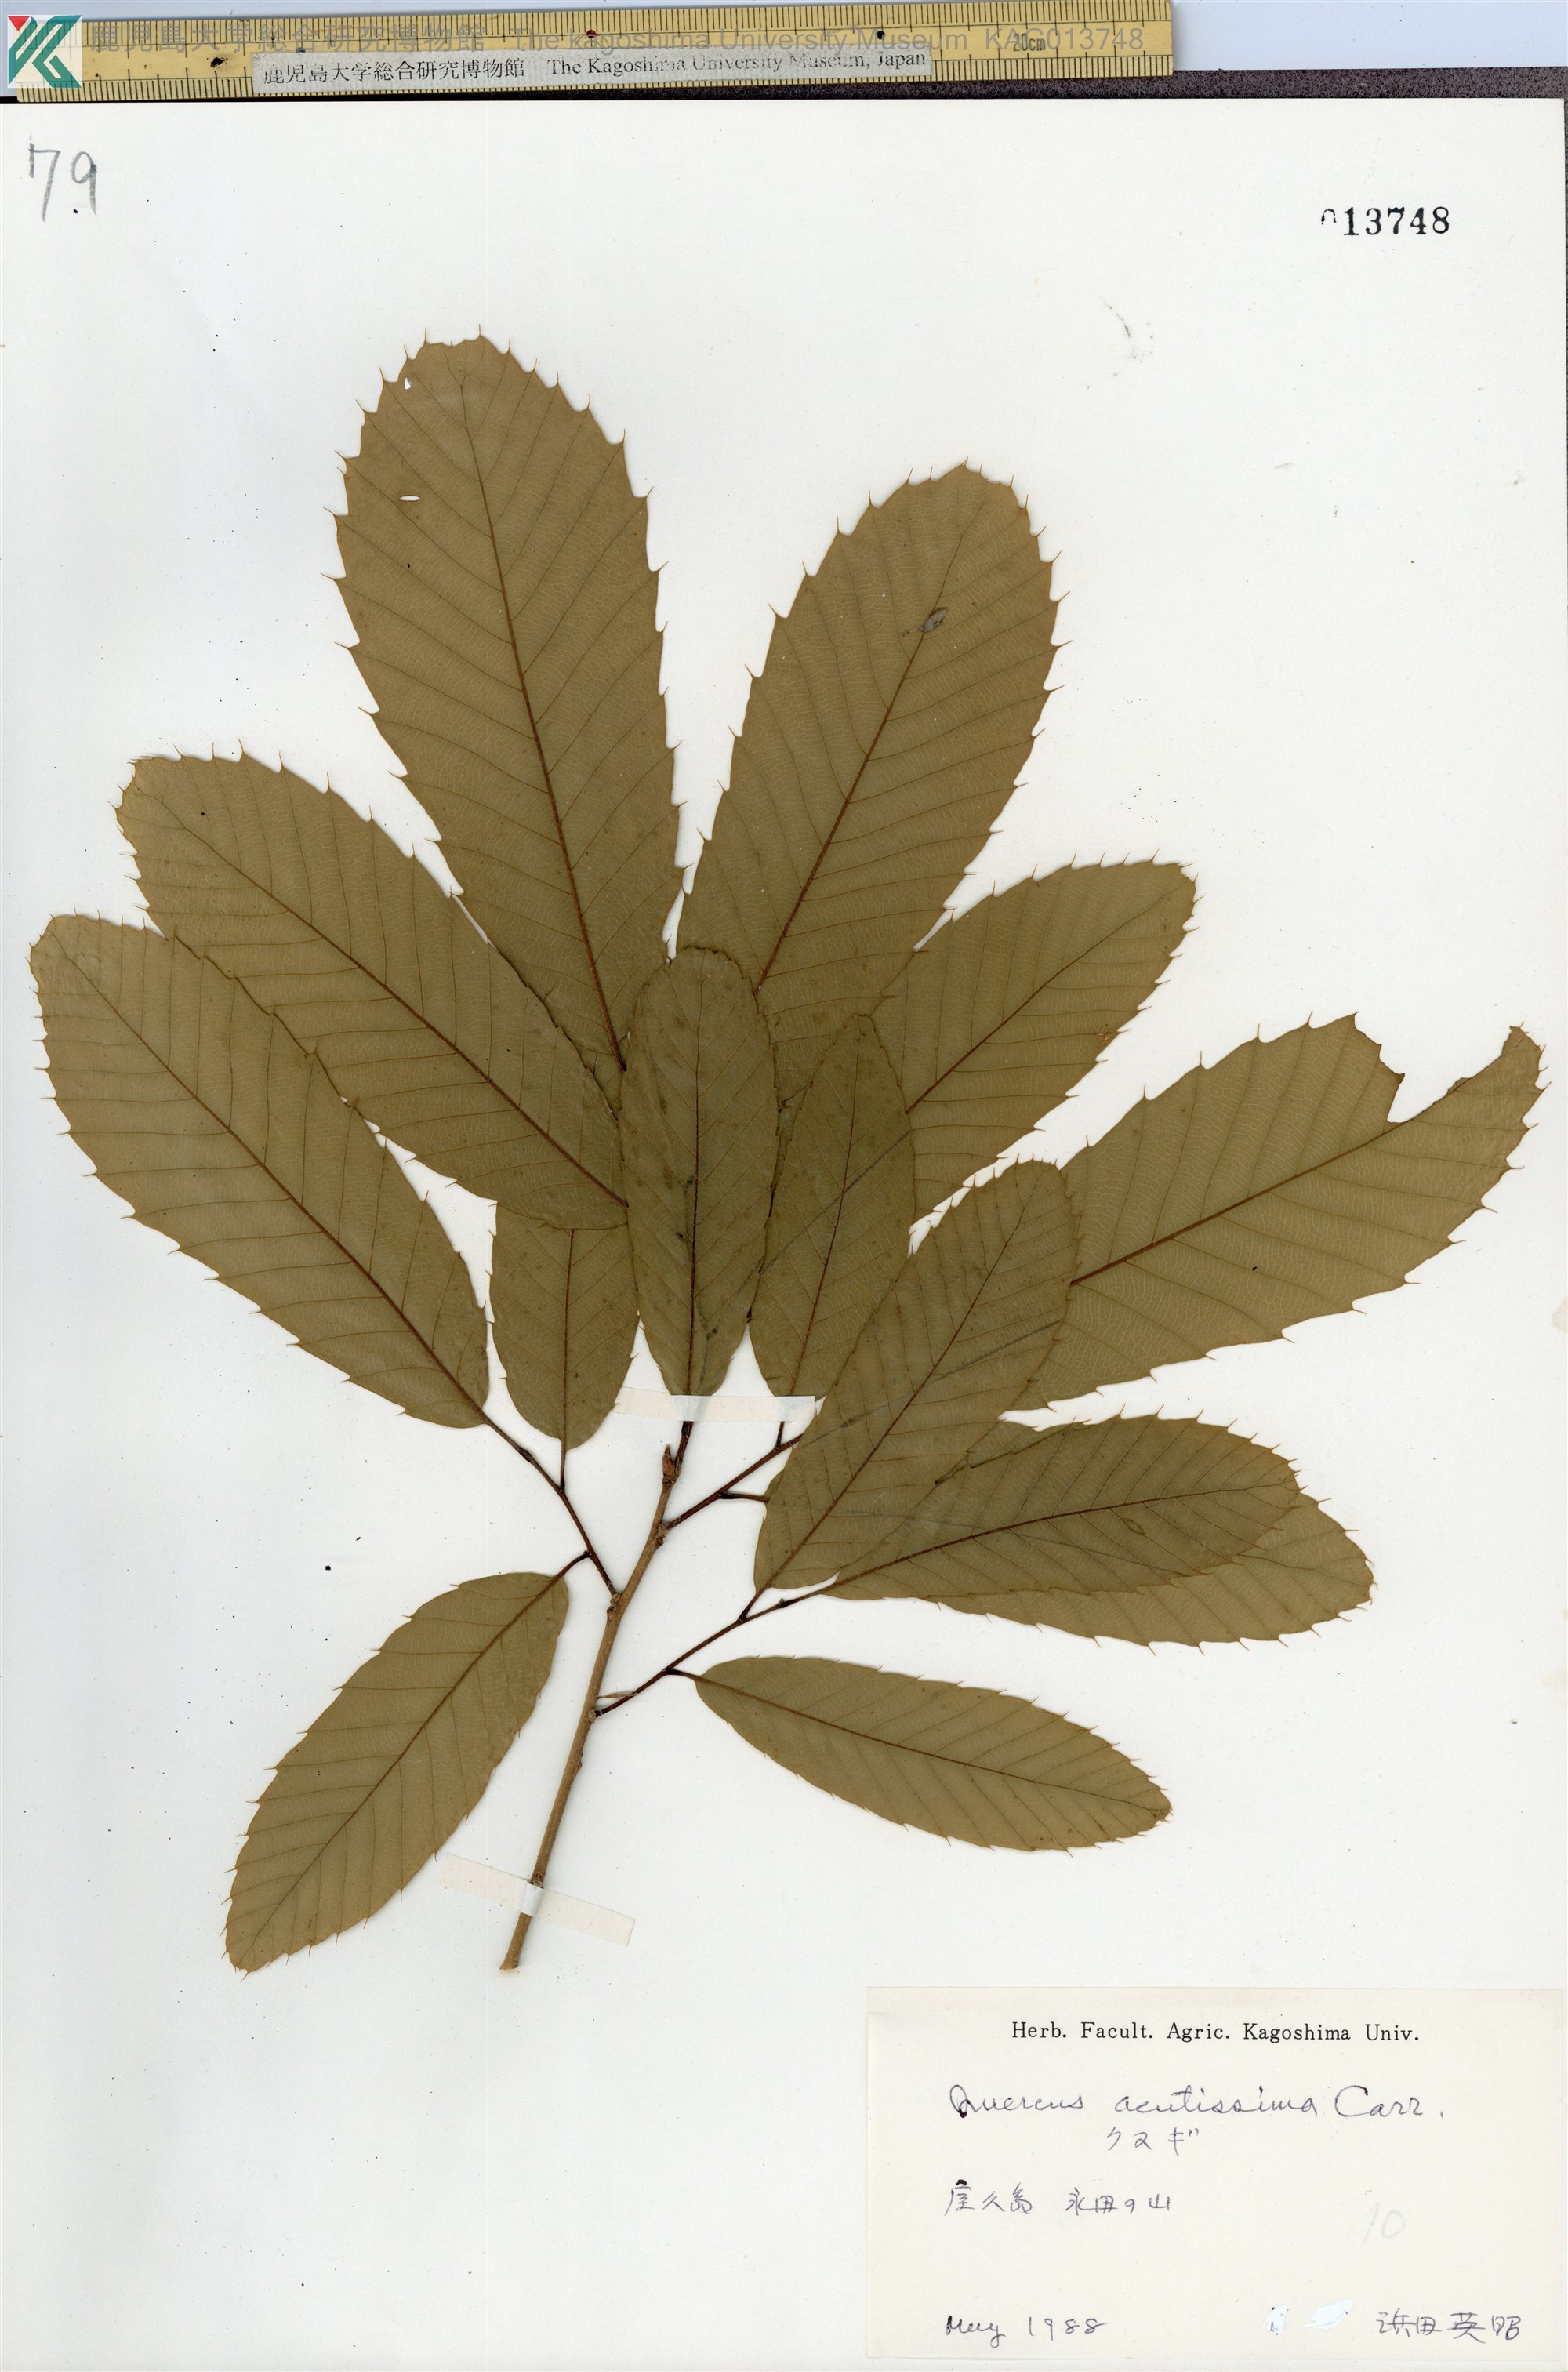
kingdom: Plantae
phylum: Tracheophyta
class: Magnoliopsida
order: Fagales
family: Fagaceae
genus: Quercus
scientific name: Quercus acutissima
